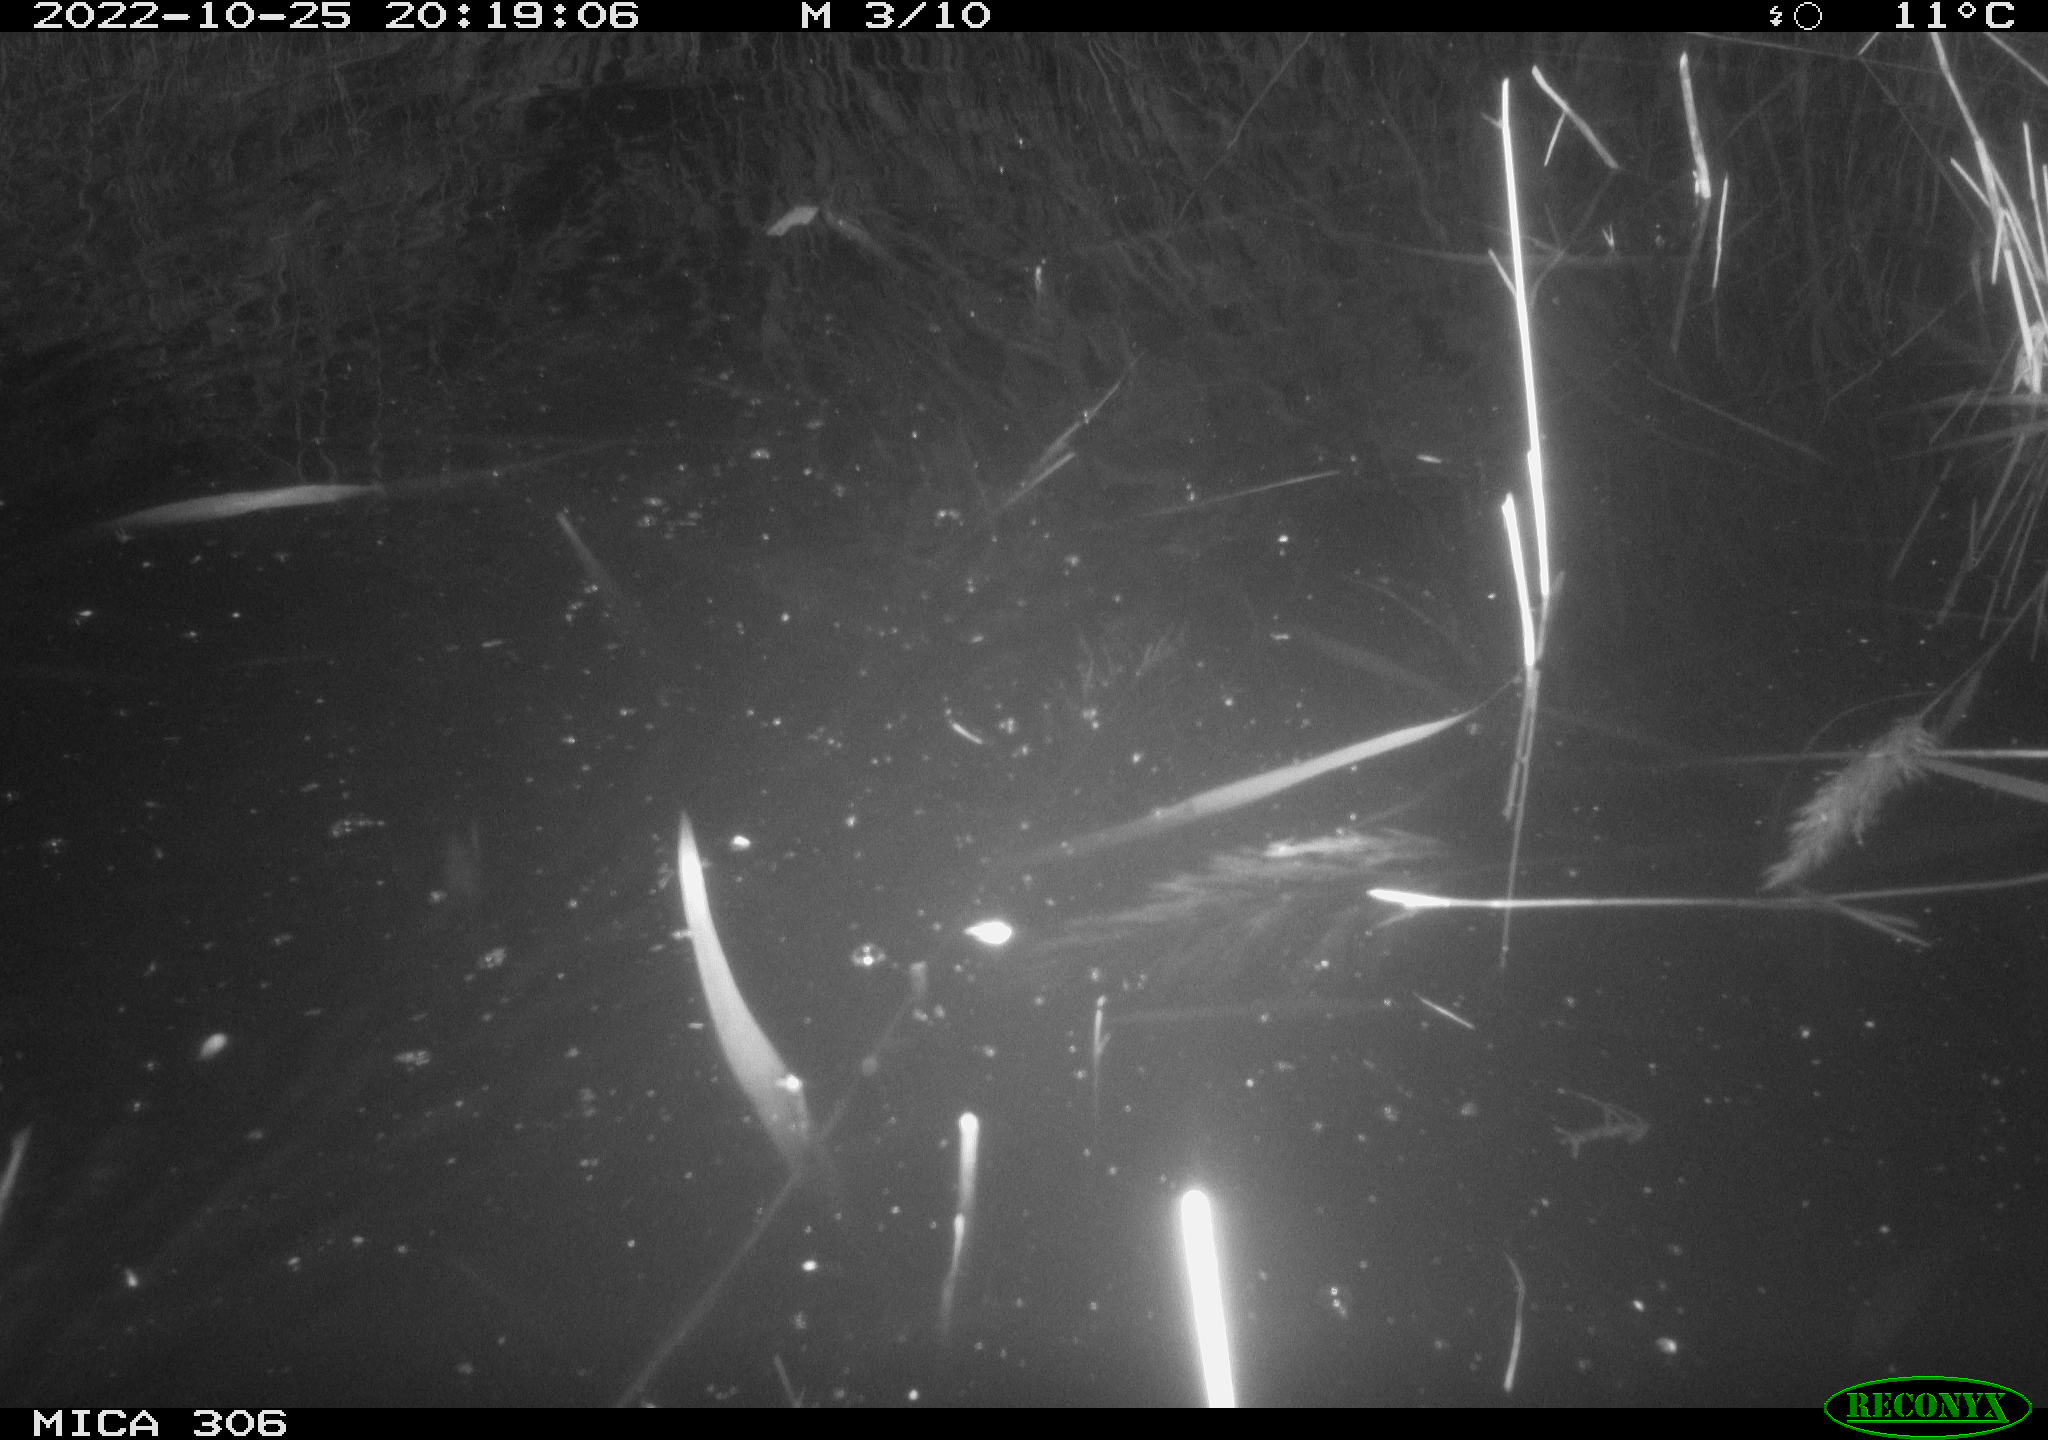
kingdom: Animalia
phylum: Chordata
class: Mammalia
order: Rodentia
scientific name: Rodentia
